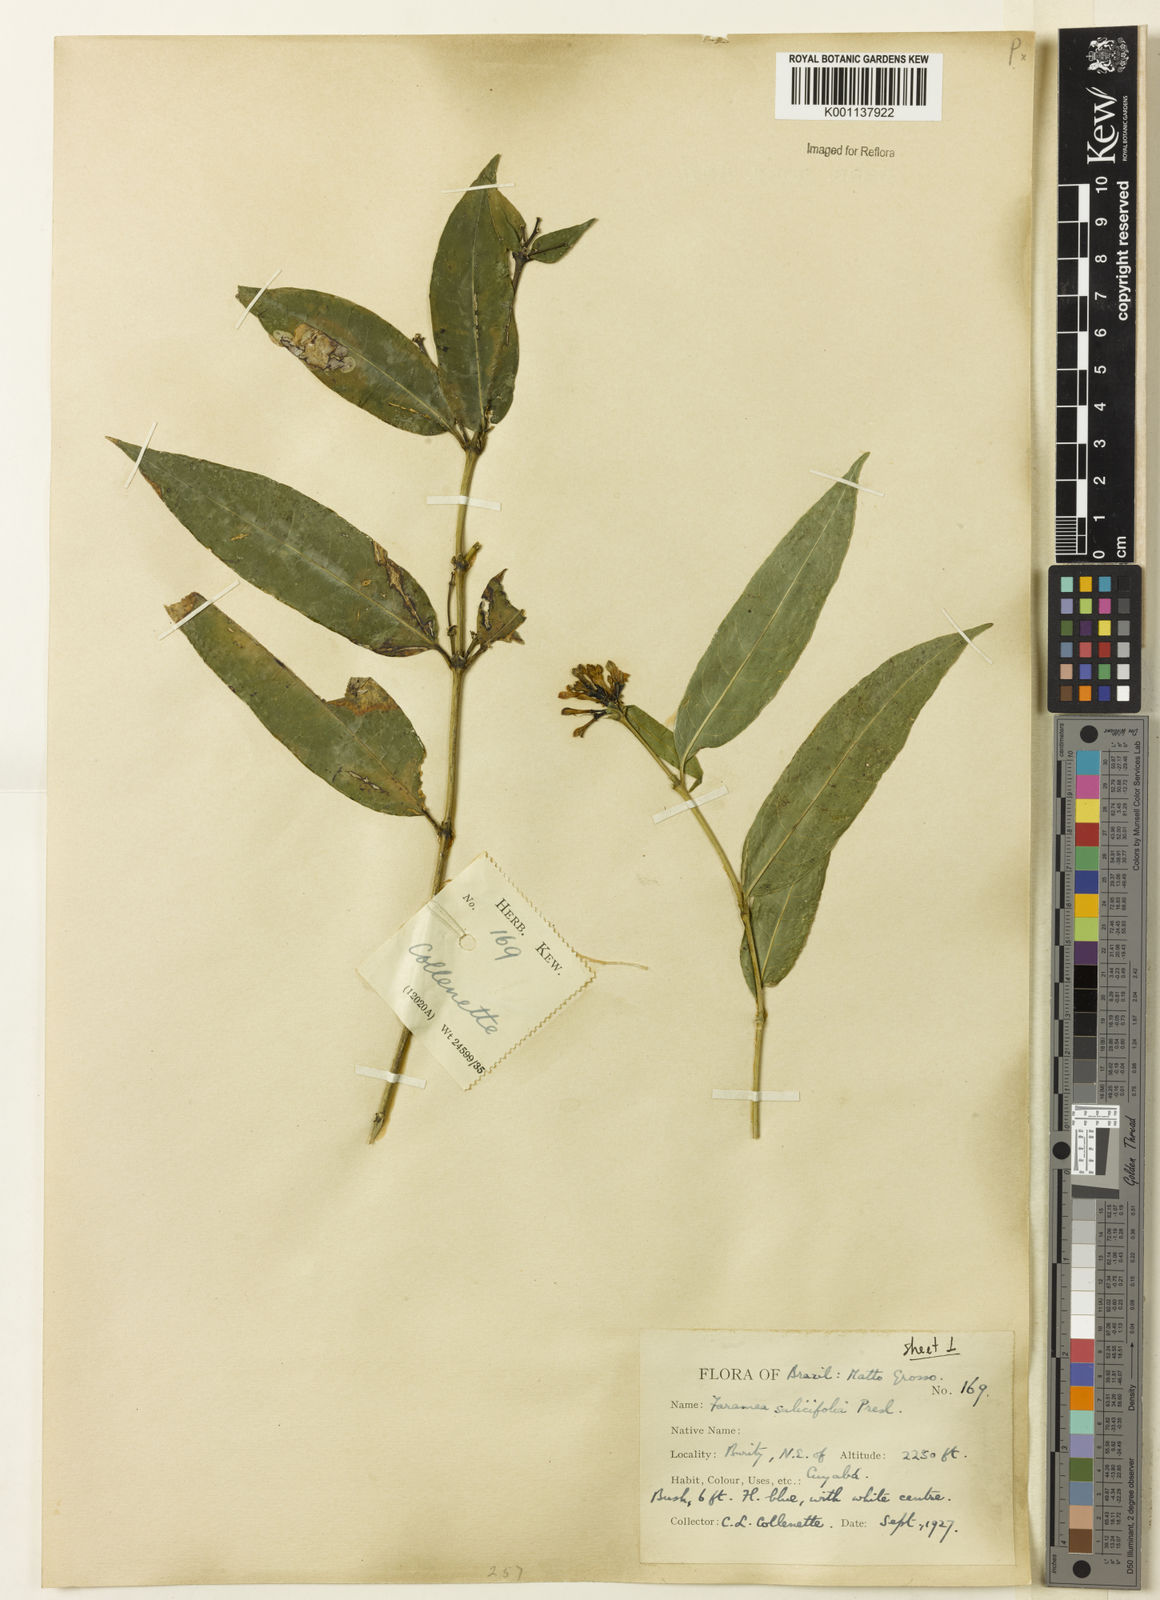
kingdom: Plantae
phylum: Tracheophyta
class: Magnoliopsida
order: Gentianales
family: Rubiaceae
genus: Faramea
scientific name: Faramea multiflora
